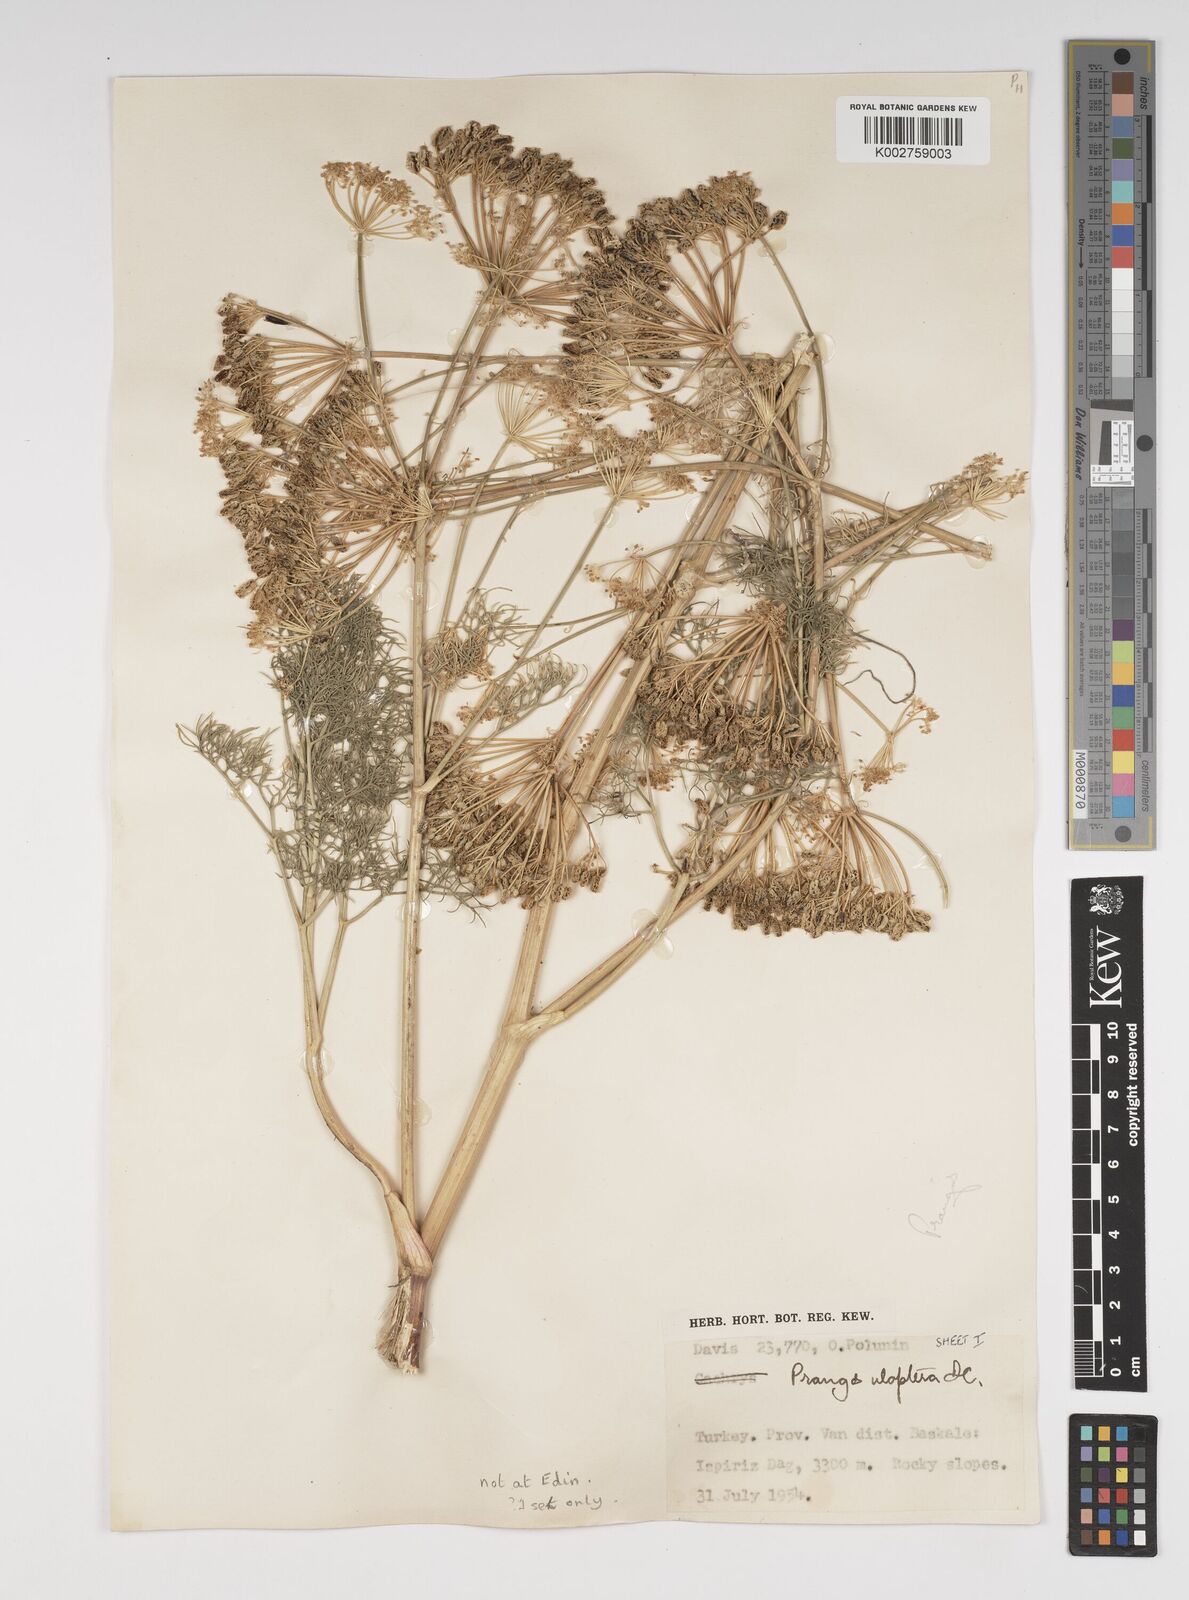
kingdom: Plantae
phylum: Tracheophyta
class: Magnoliopsida
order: Apiales
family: Apiaceae
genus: Prangos
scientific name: Prangos uloptera
